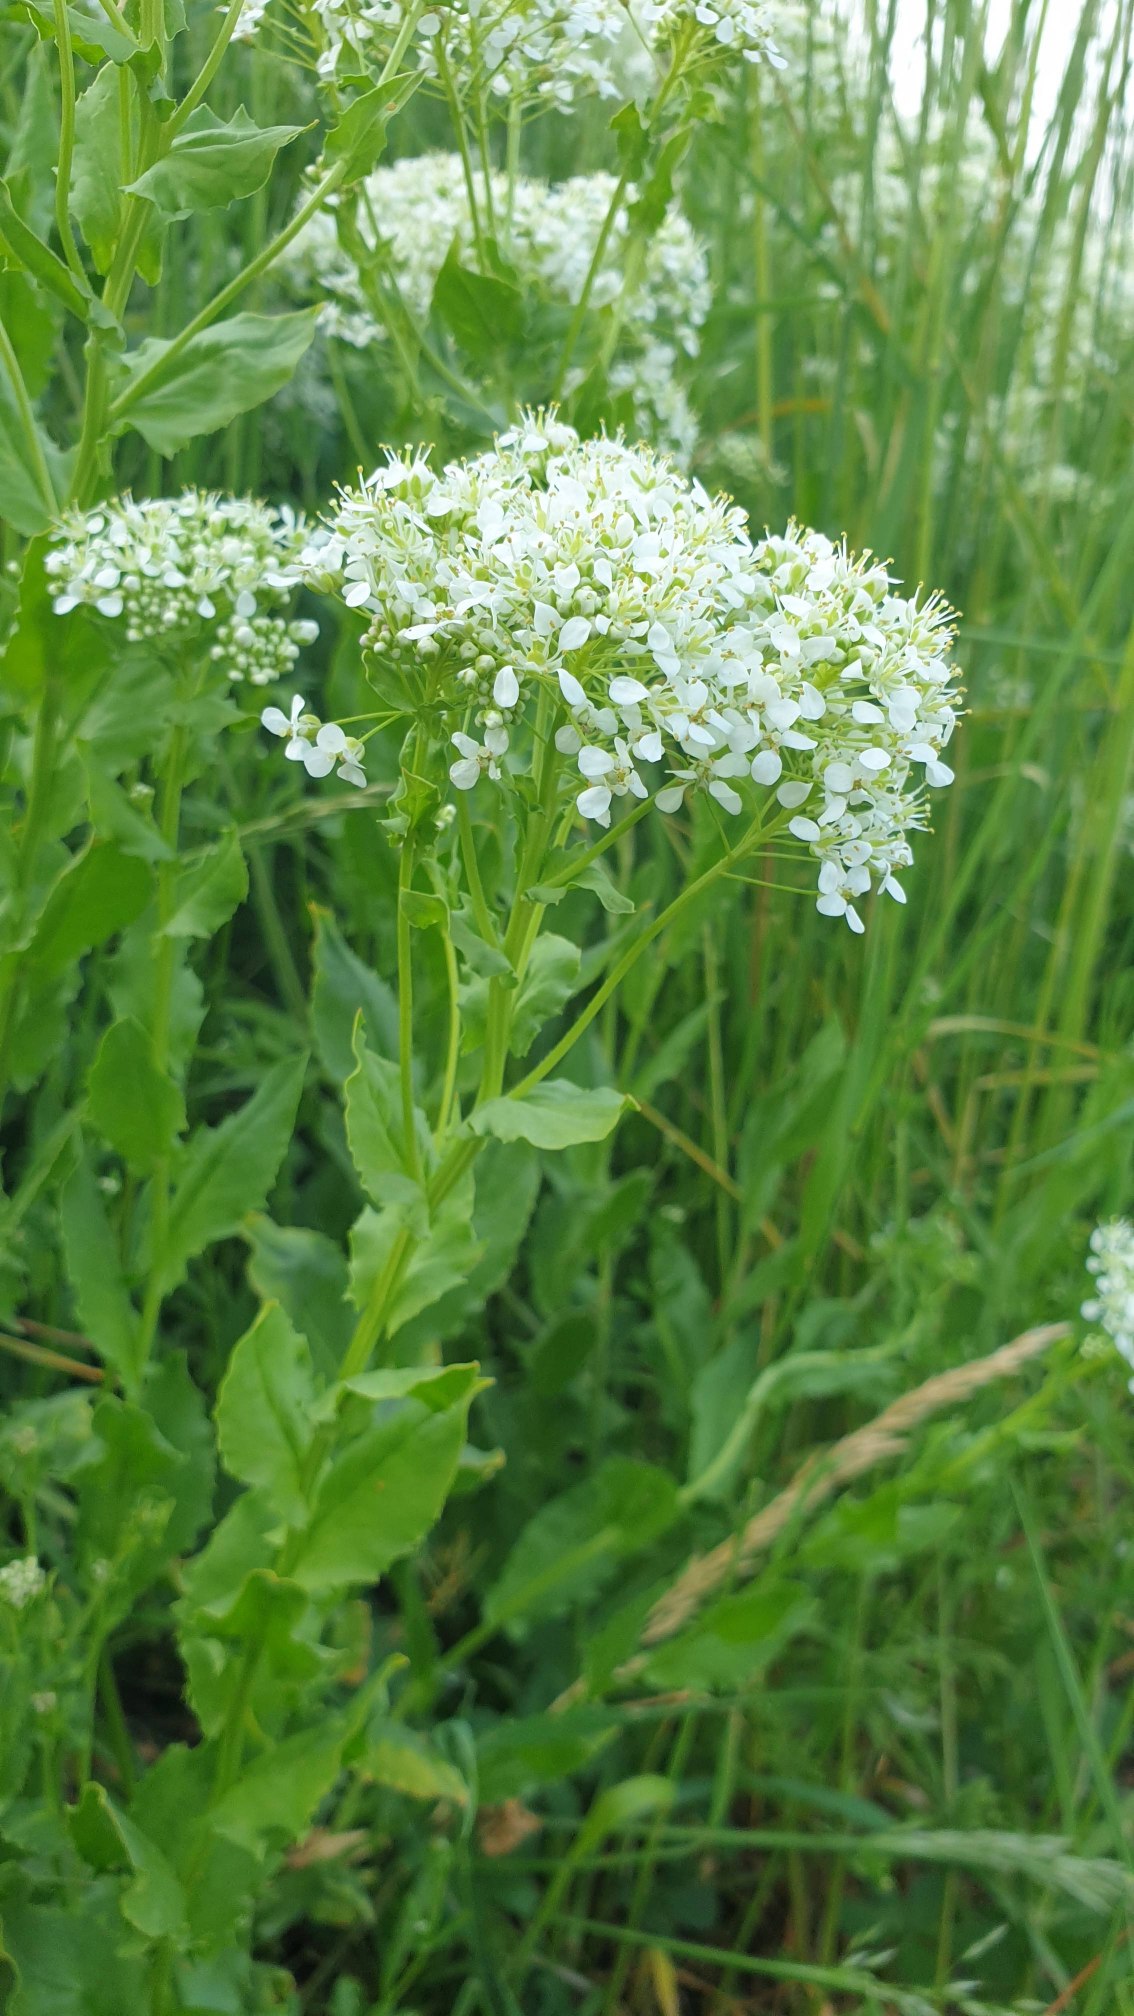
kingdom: Plantae
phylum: Tracheophyta
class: Magnoliopsida
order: Brassicales
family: Brassicaceae
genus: Lepidium
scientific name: Lepidium draba
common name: Hjerte-karse
